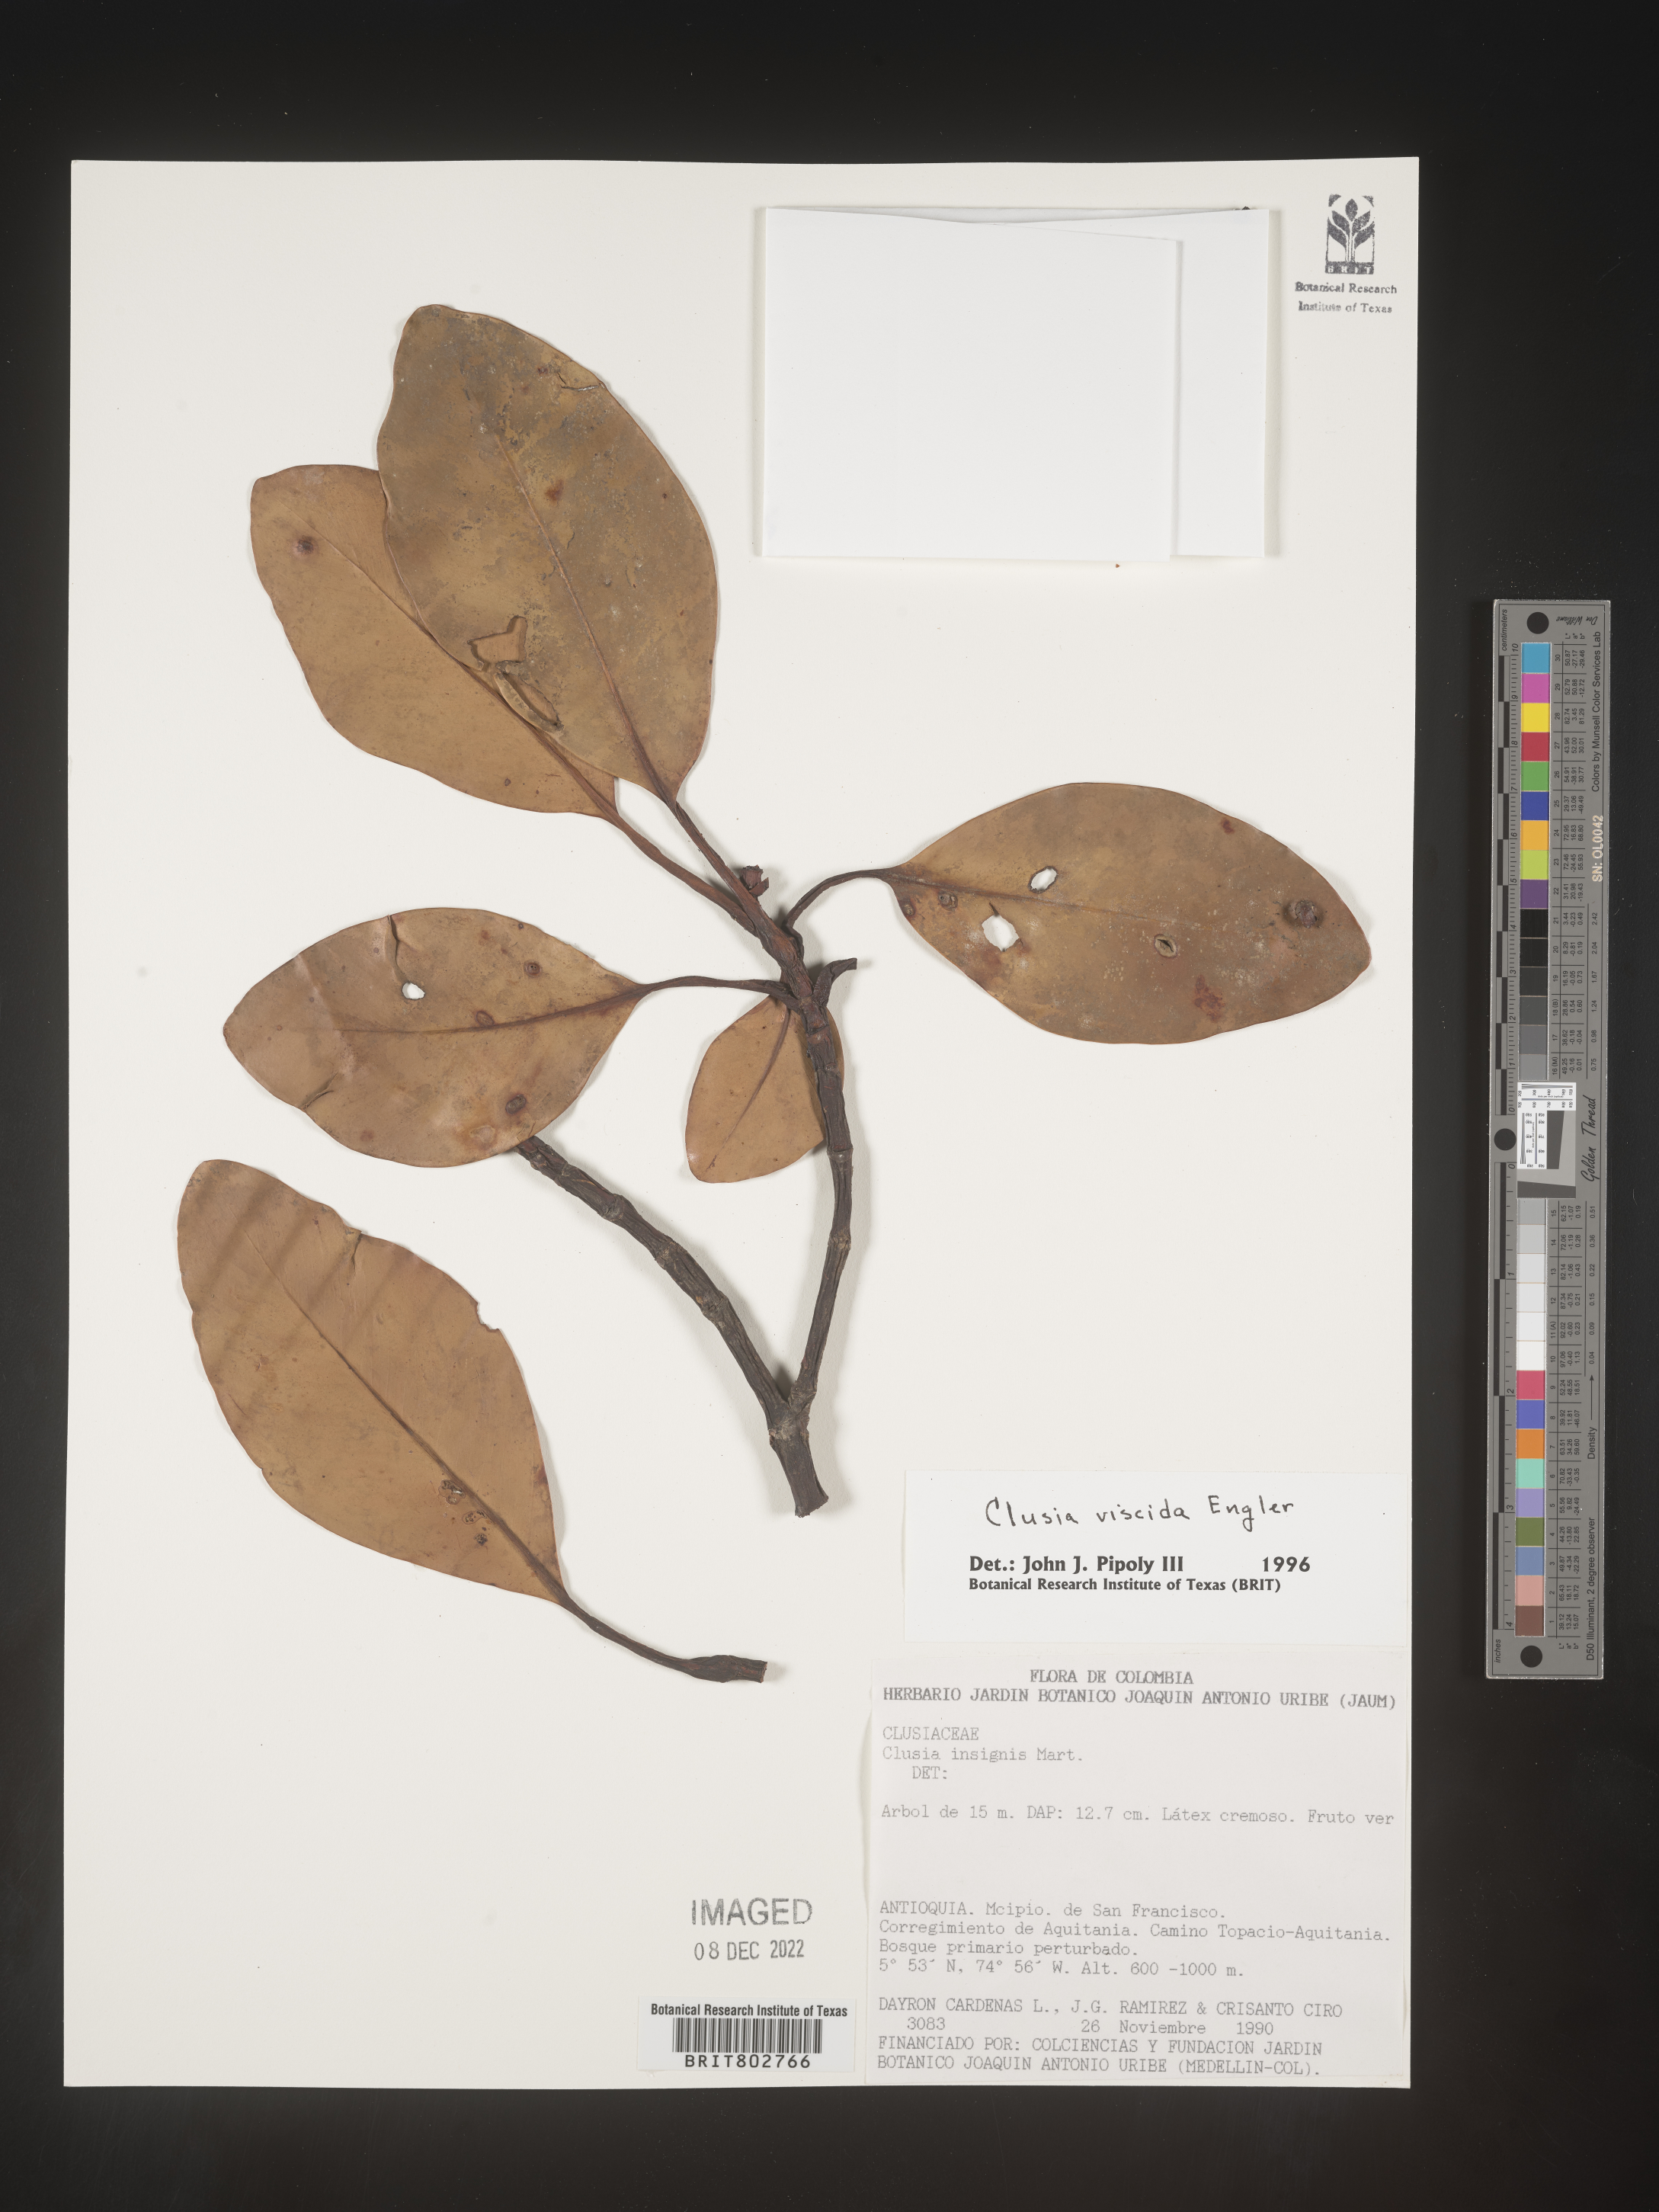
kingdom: Plantae
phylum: Tracheophyta
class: Magnoliopsida
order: Malpighiales
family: Clusiaceae
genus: Clusia
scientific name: Clusia viscida
